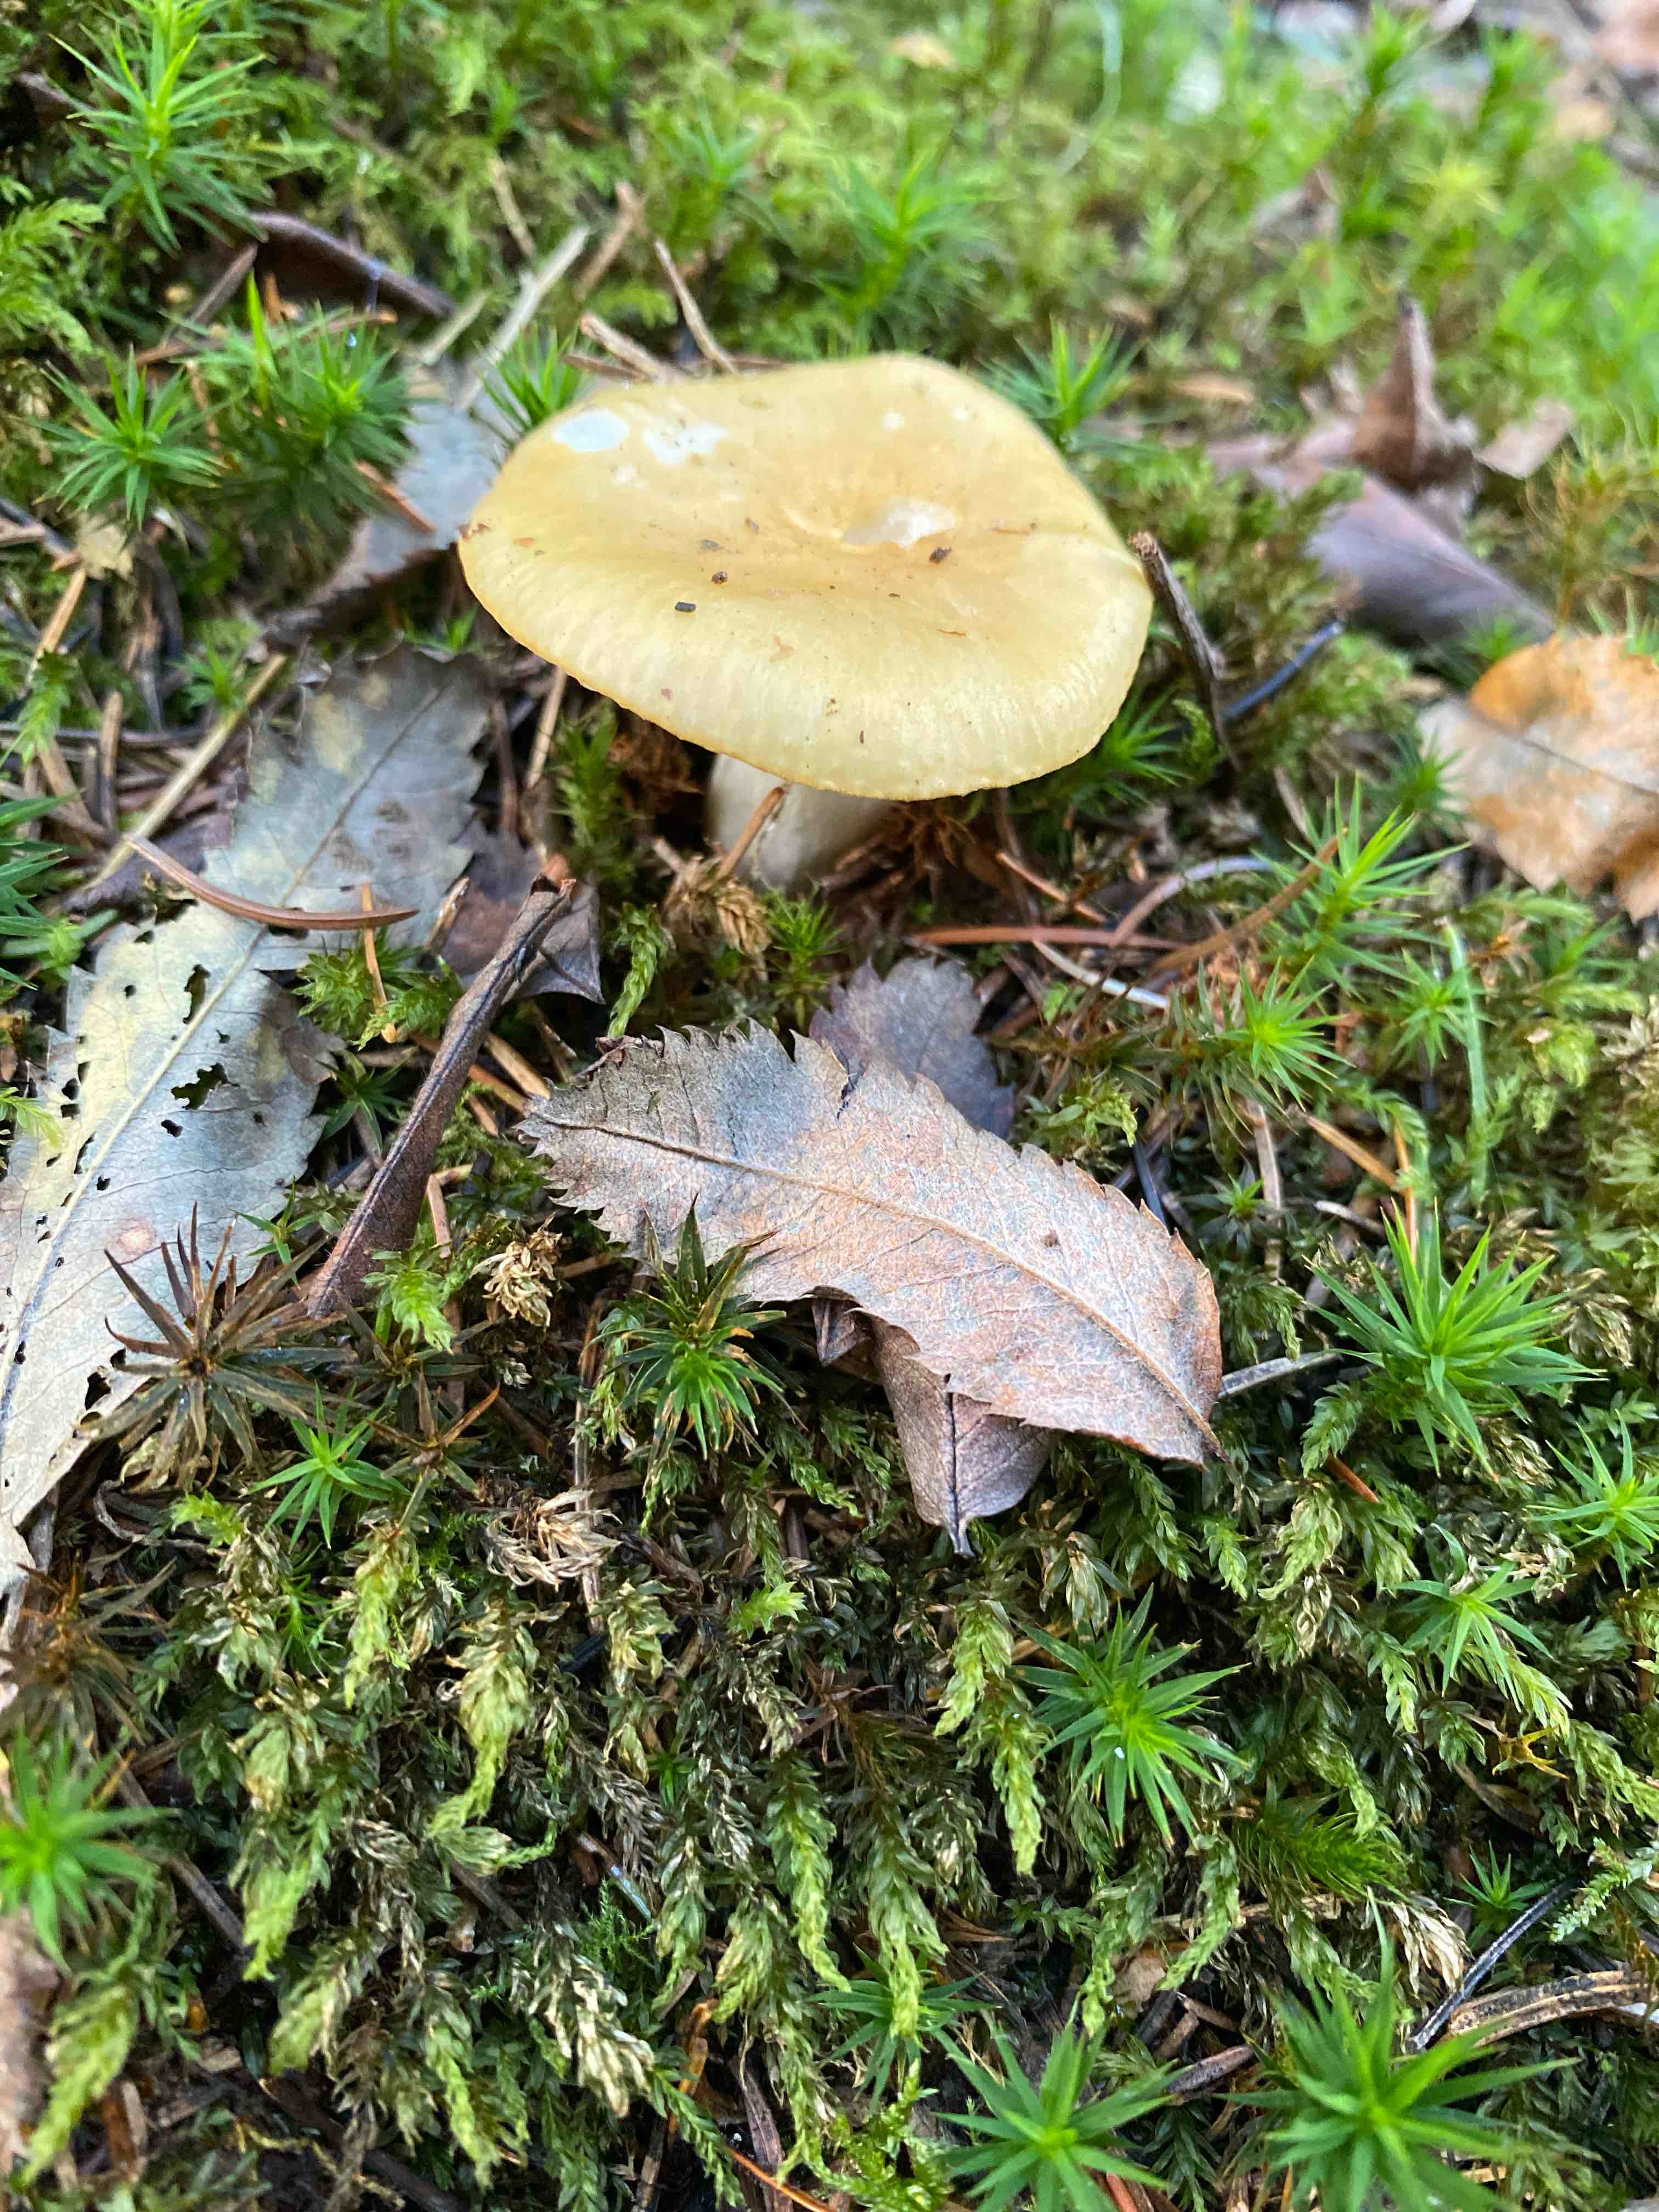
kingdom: Fungi
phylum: Basidiomycota
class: Agaricomycetes
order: Russulales
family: Russulaceae
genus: Russula
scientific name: Russula ochroleuca
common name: okkergul skørhat
